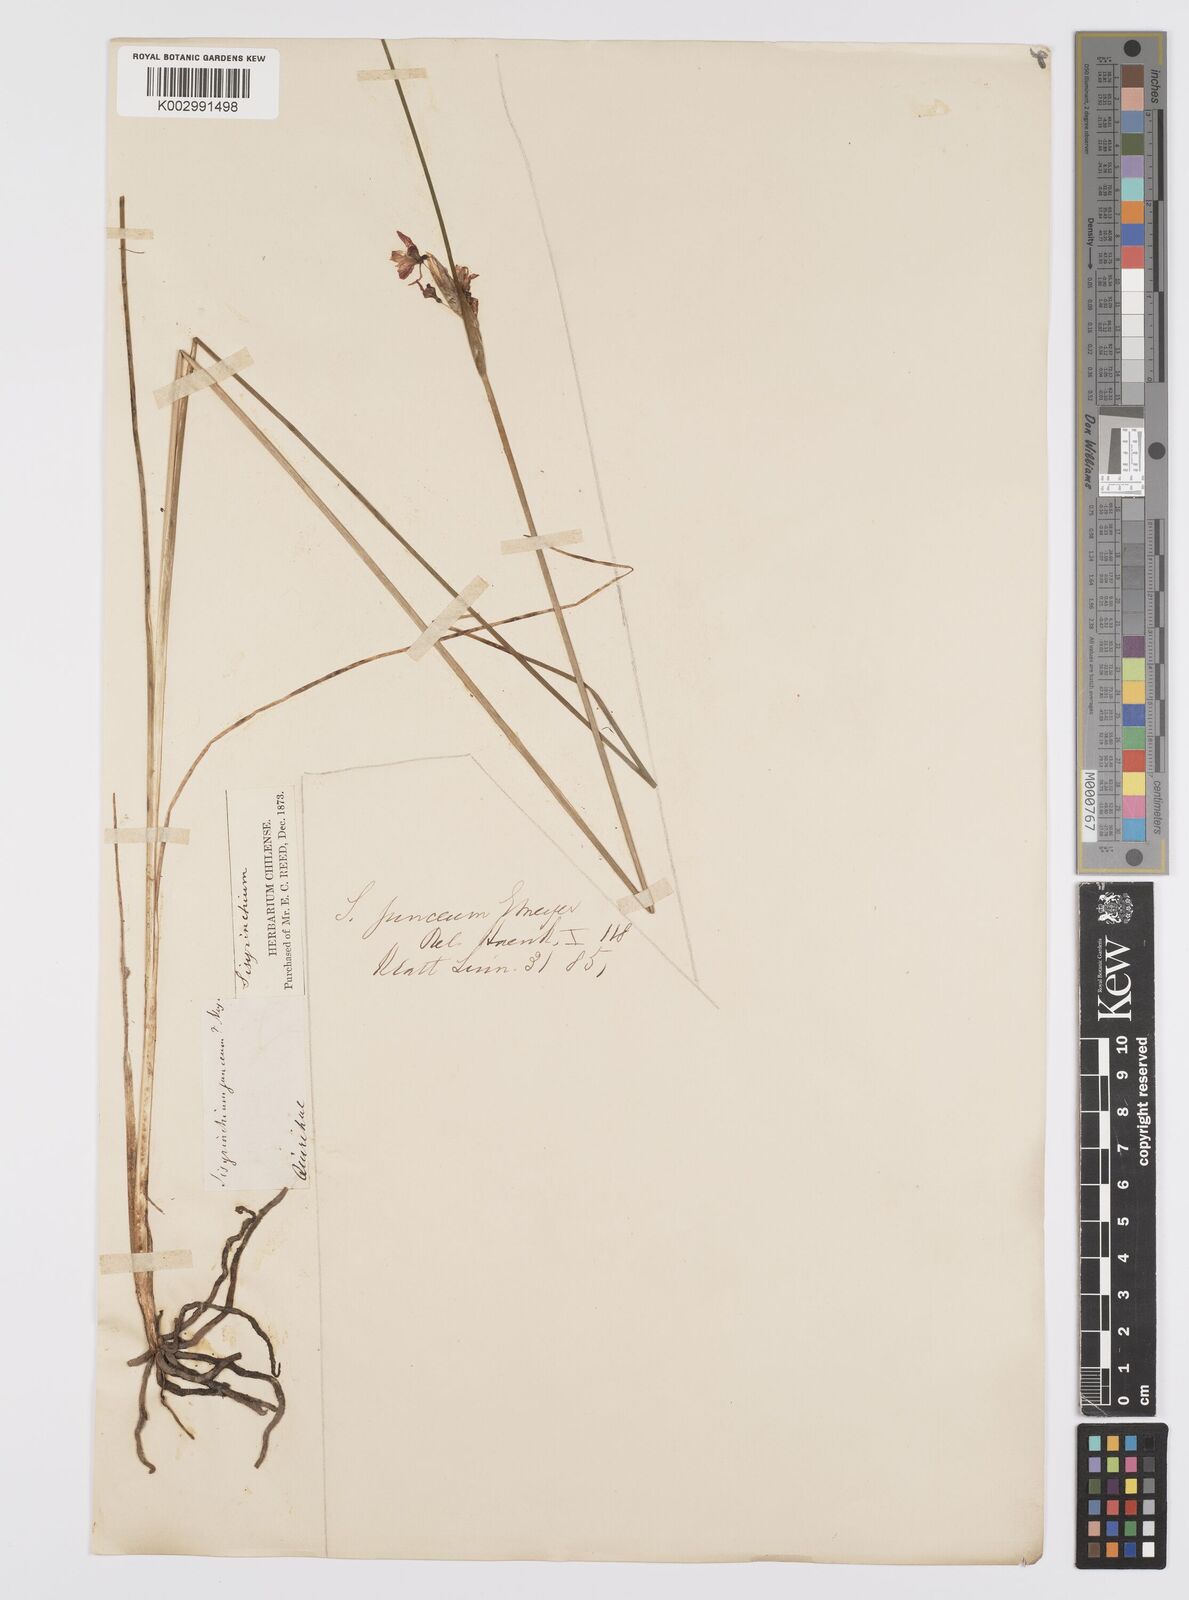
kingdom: Plantae
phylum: Tracheophyta
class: Liliopsida
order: Asparagales
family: Iridaceae
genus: Olsynium
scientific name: Olsynium junceum
